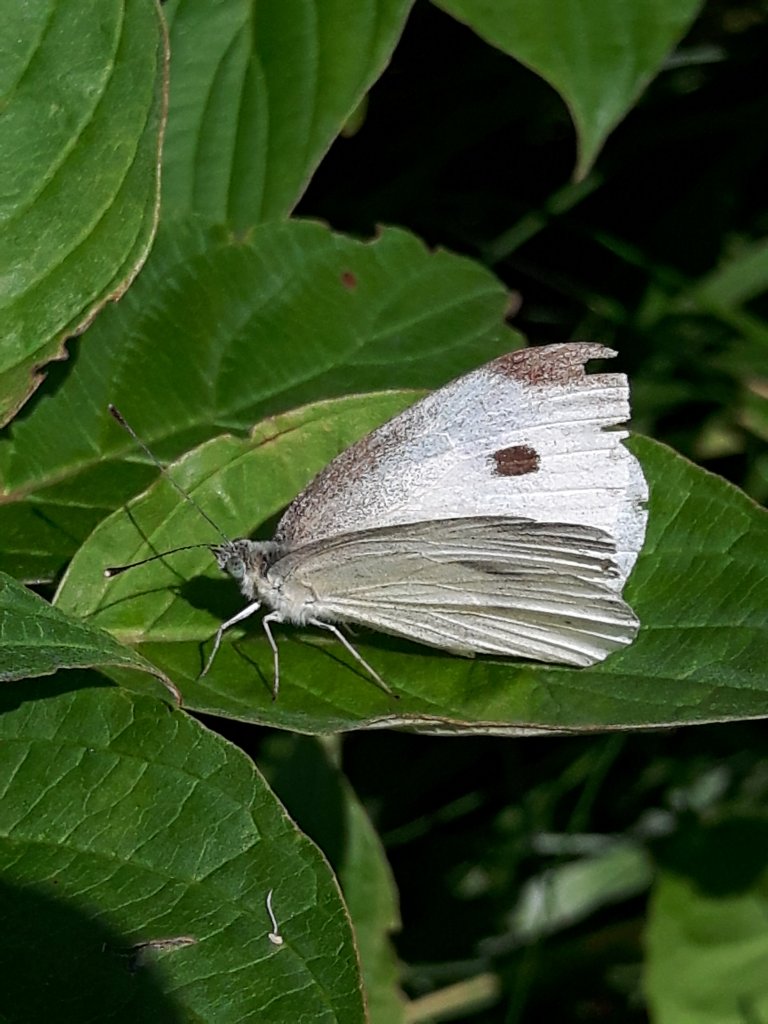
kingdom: Animalia
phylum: Arthropoda
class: Insecta
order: Lepidoptera
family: Pieridae
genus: Pieris
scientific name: Pieris rapae
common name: Cabbage White
